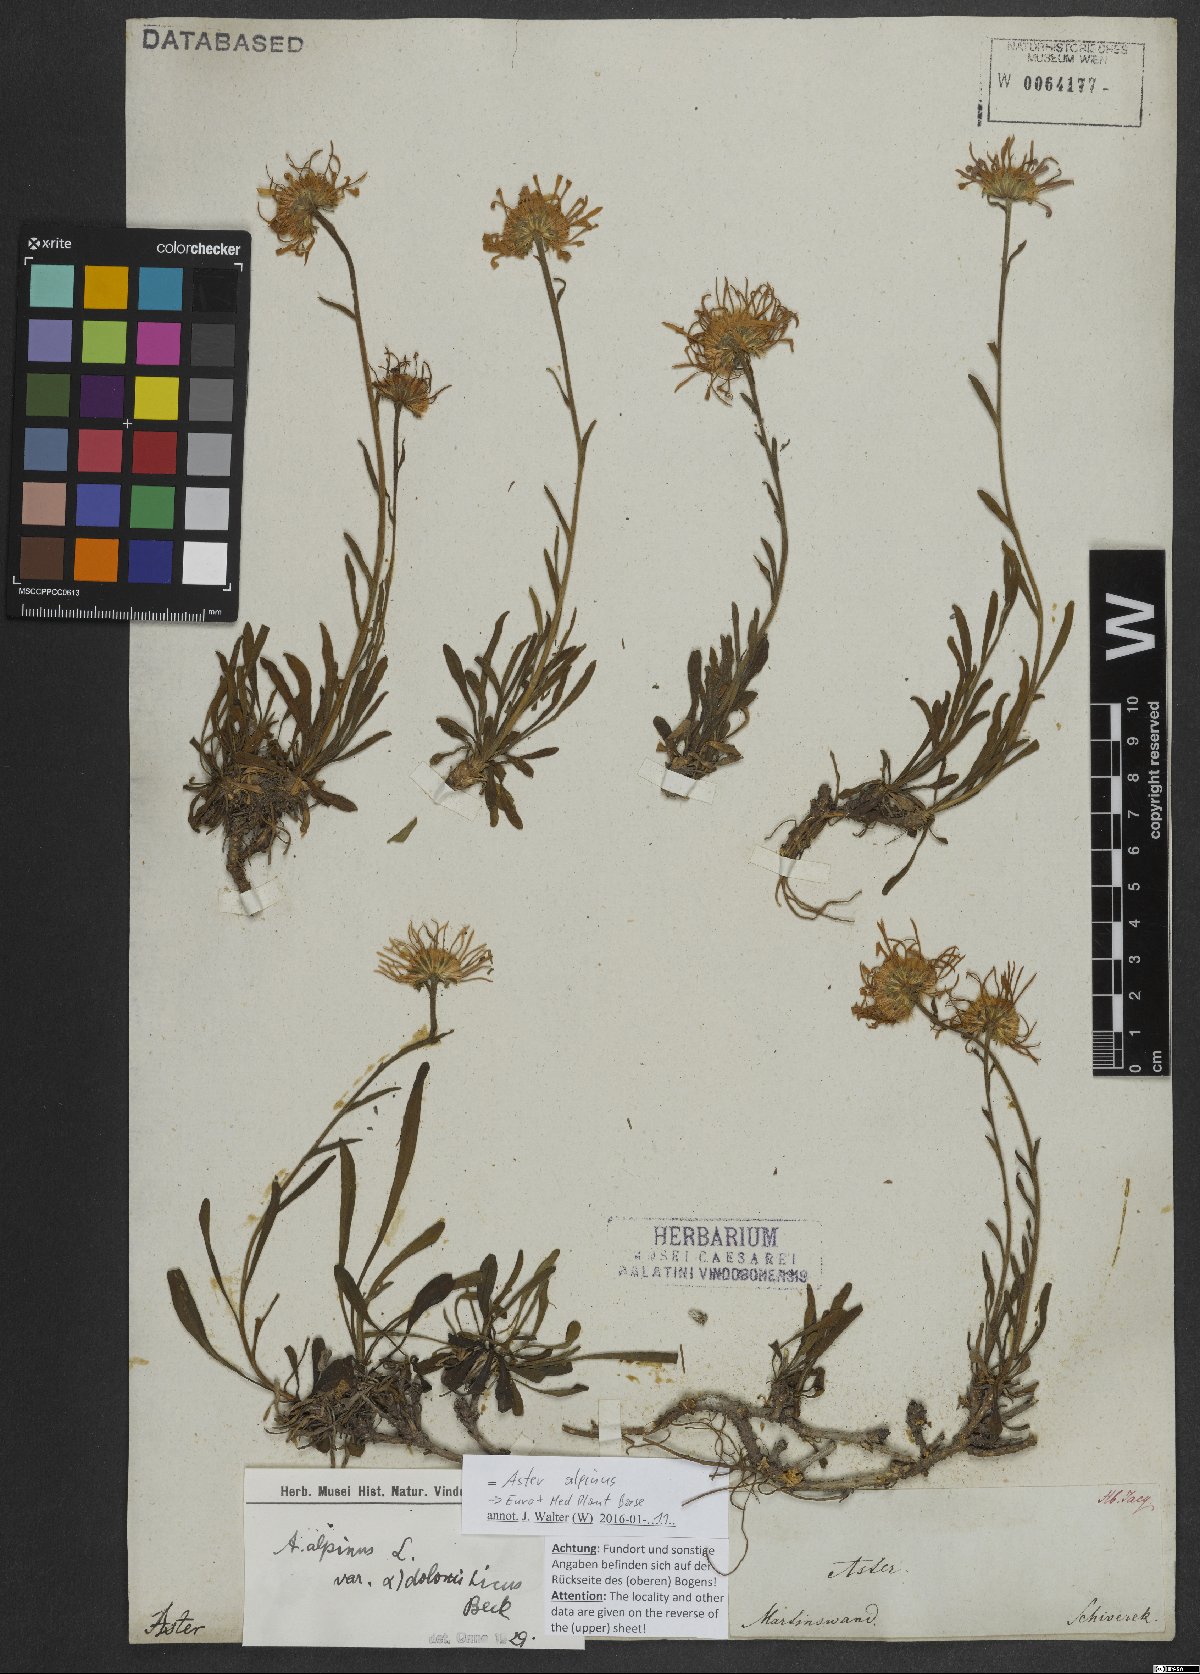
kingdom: Plantae
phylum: Tracheophyta
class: Magnoliopsida
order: Asterales
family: Asteraceae
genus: Aster
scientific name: Aster alpinus
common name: Alpine aster
